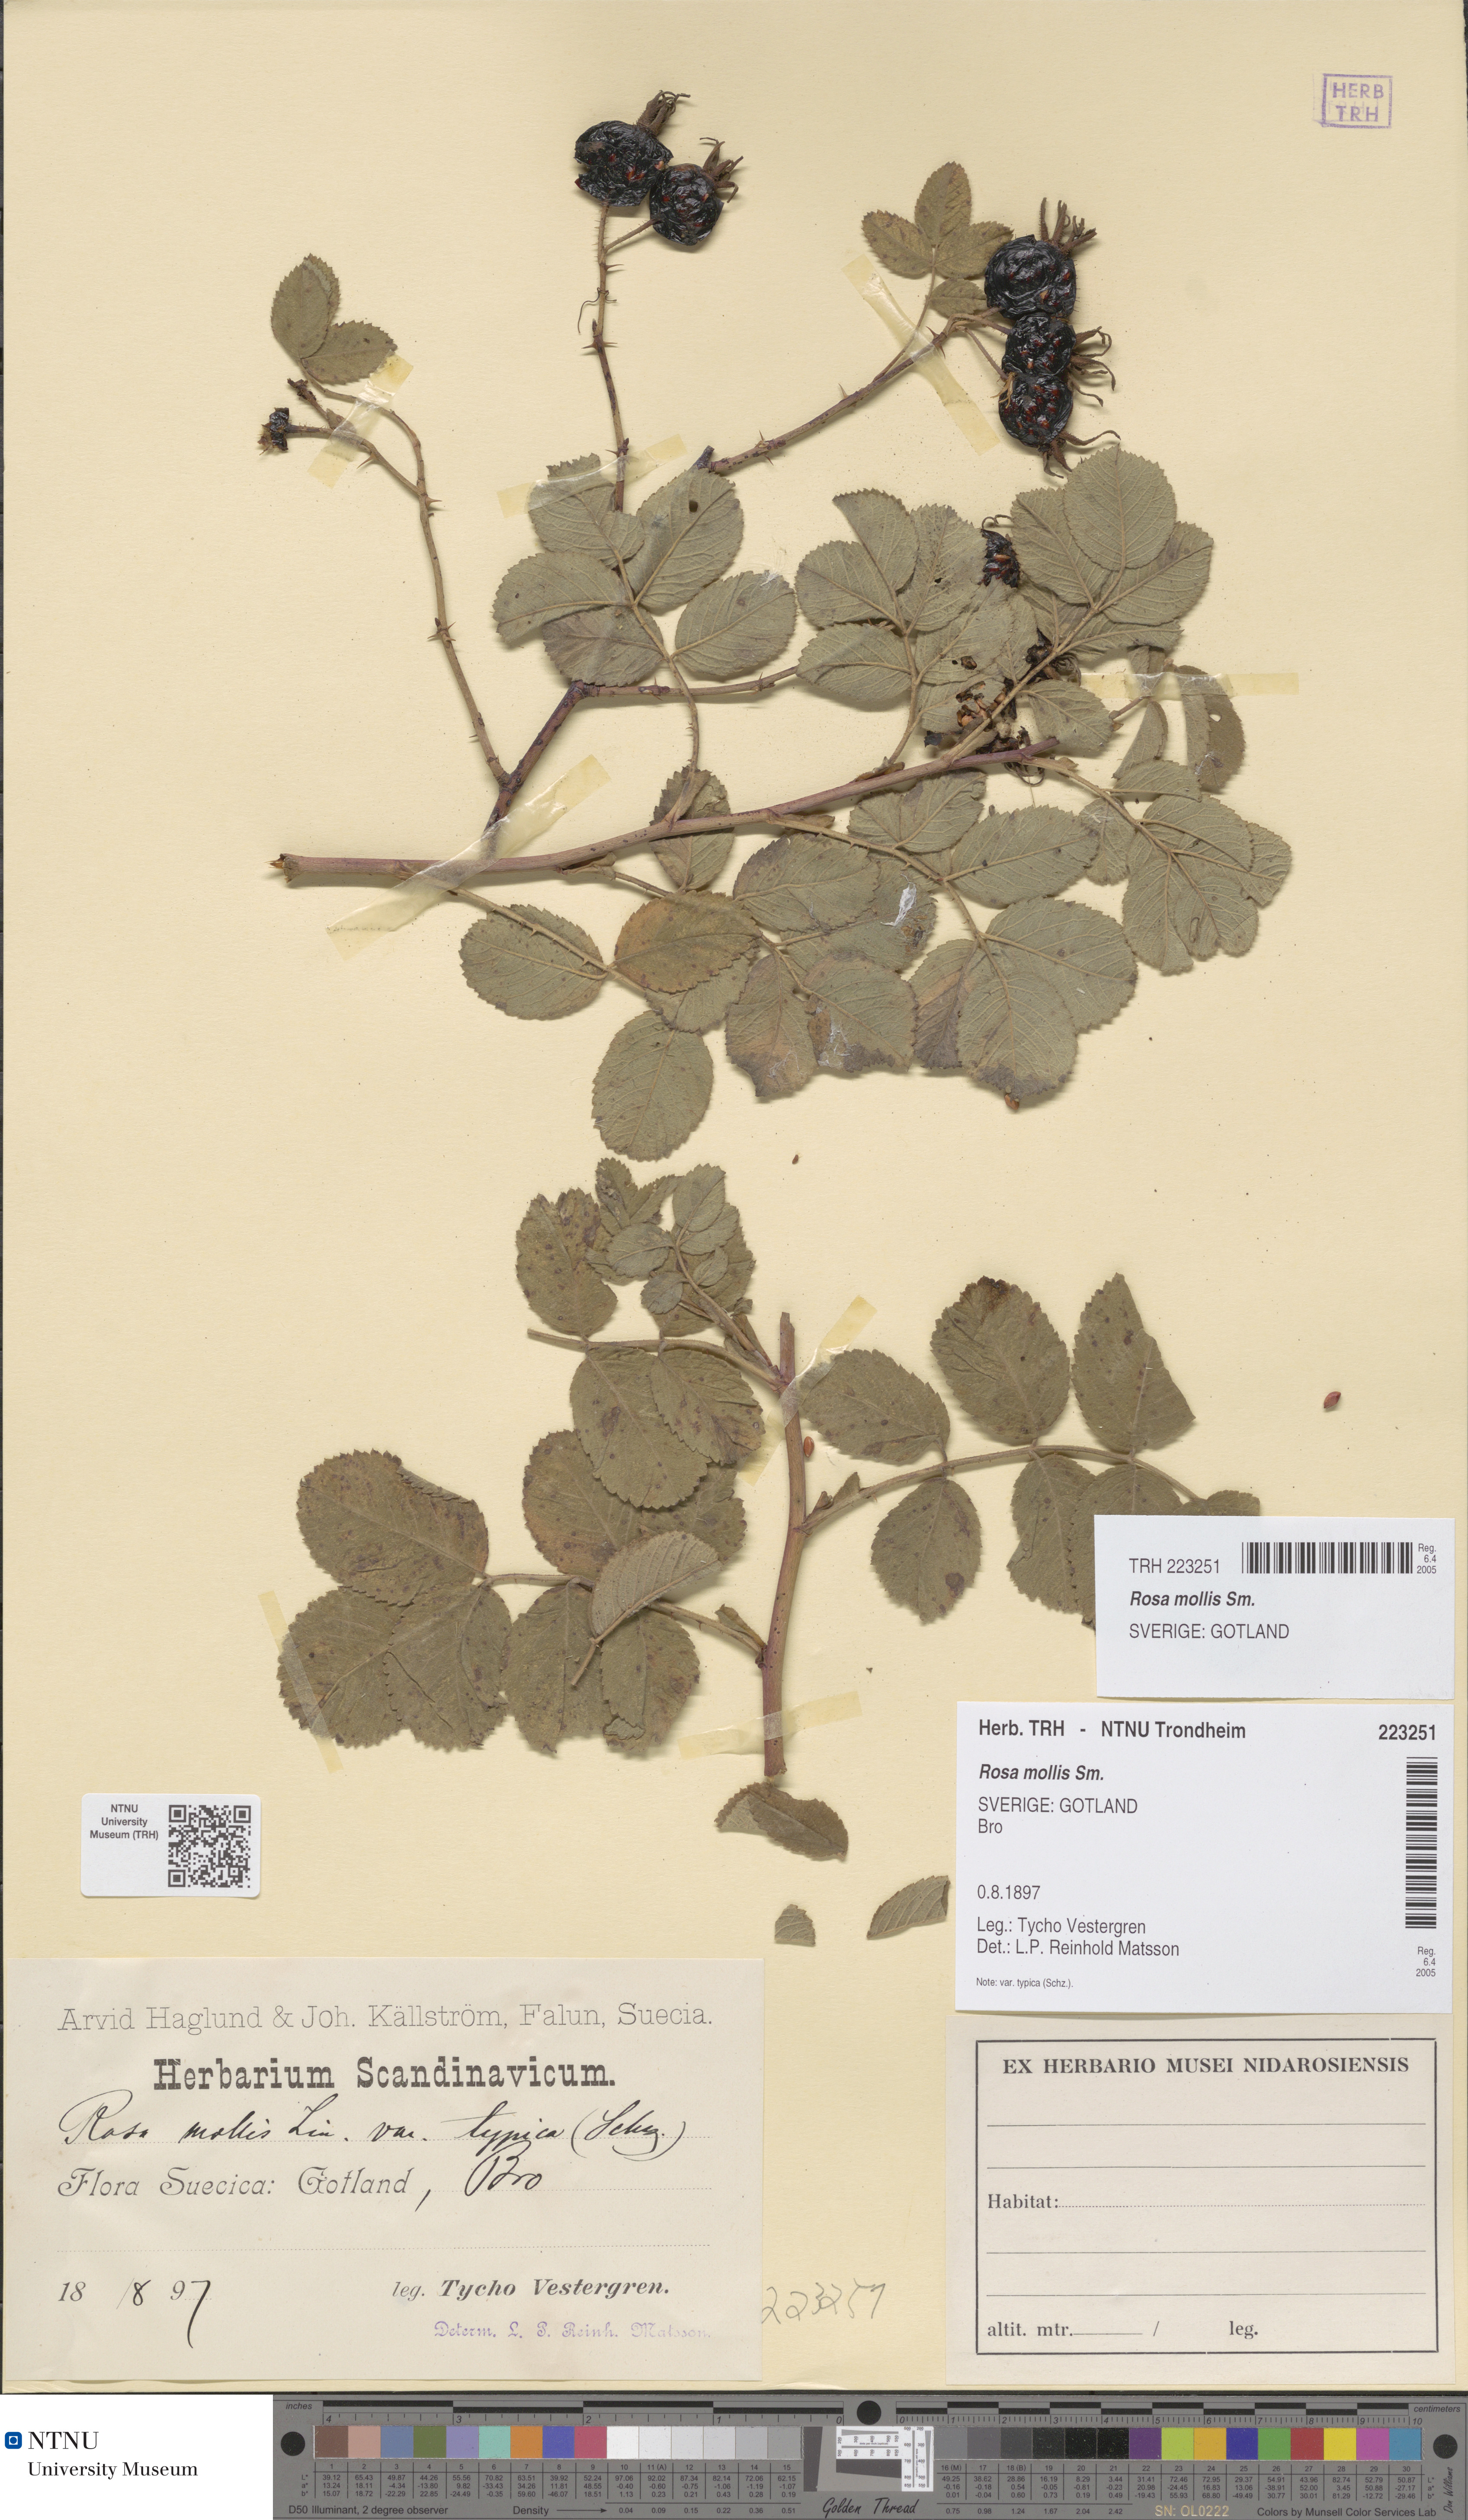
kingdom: Plantae
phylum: Tracheophyta
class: Magnoliopsida
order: Rosales
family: Rosaceae
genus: Rosa
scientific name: Rosa mollis
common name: Rose
